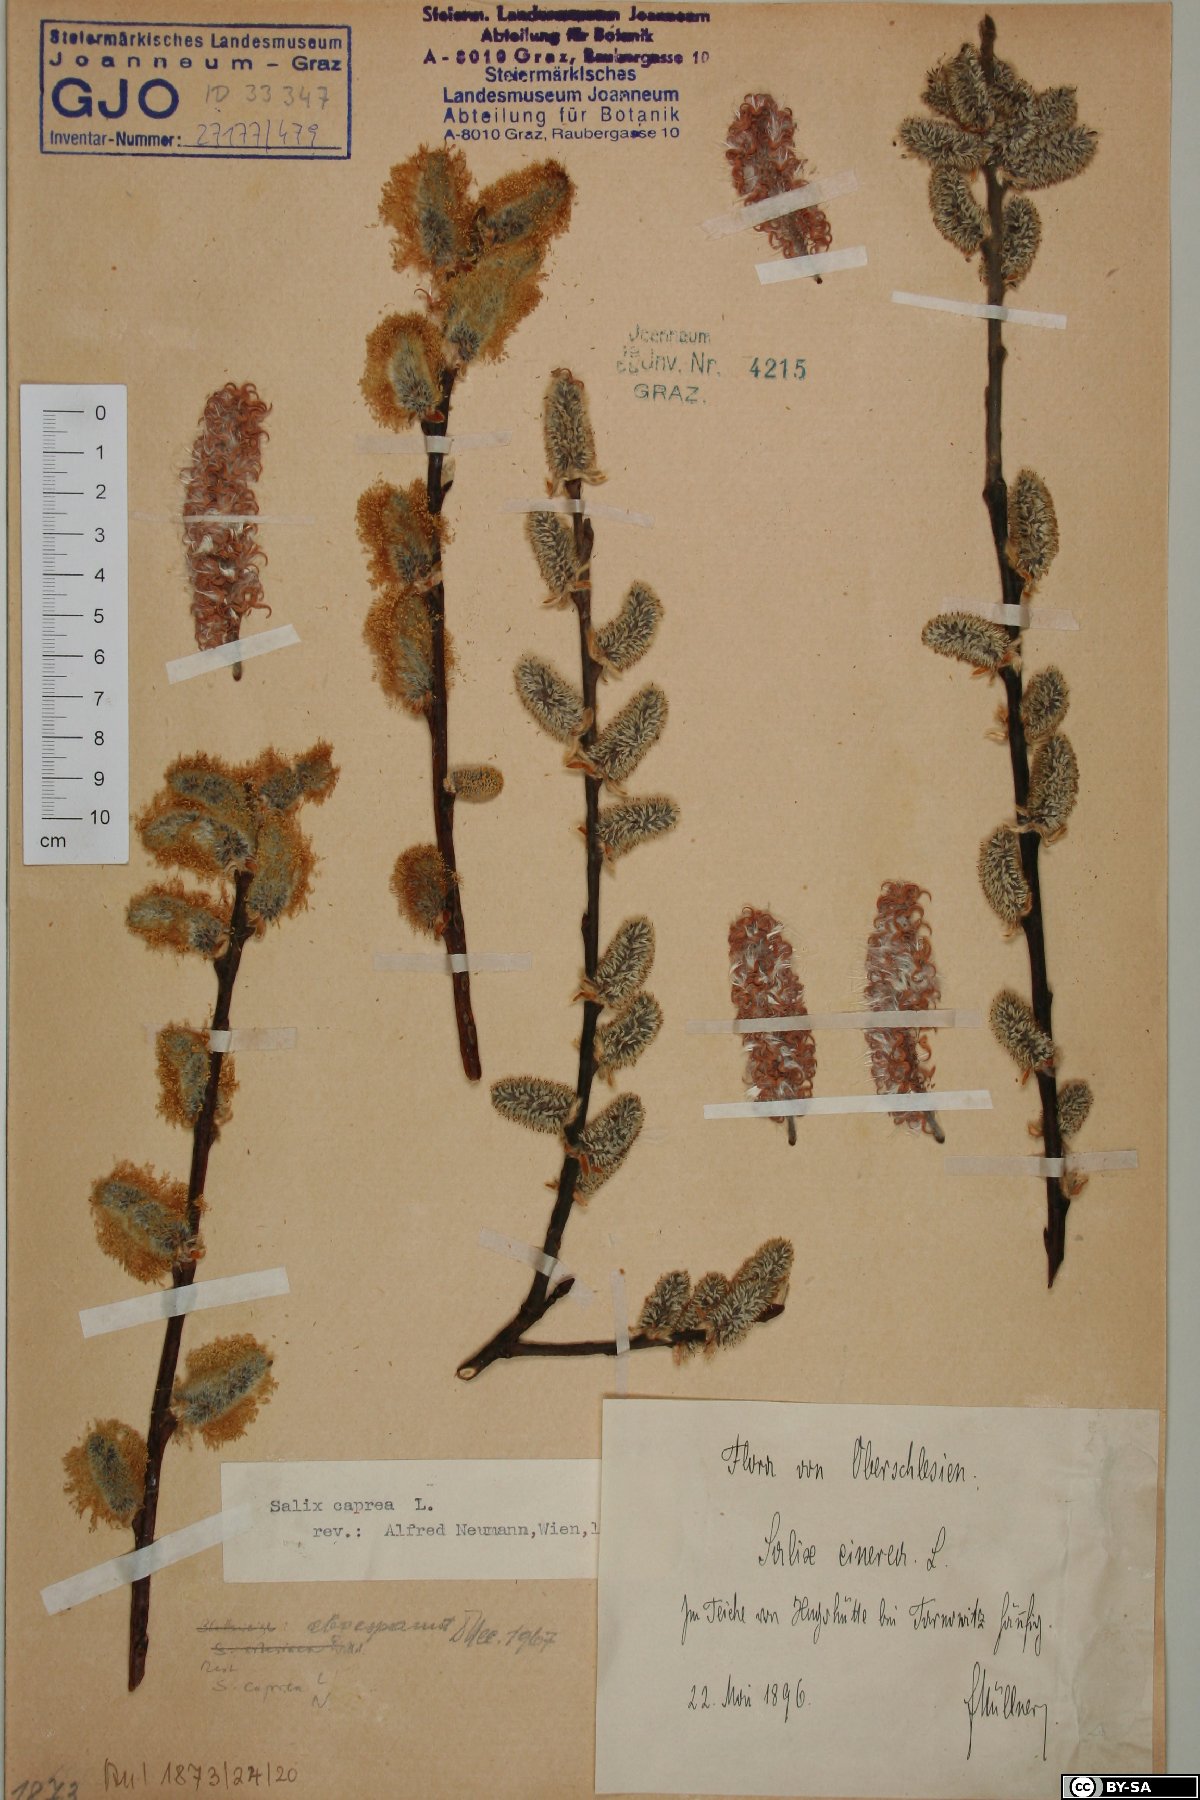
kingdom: Plantae
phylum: Tracheophyta
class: Magnoliopsida
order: Malpighiales
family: Salicaceae
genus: Salix
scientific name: Salix caprea
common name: Goat willow
